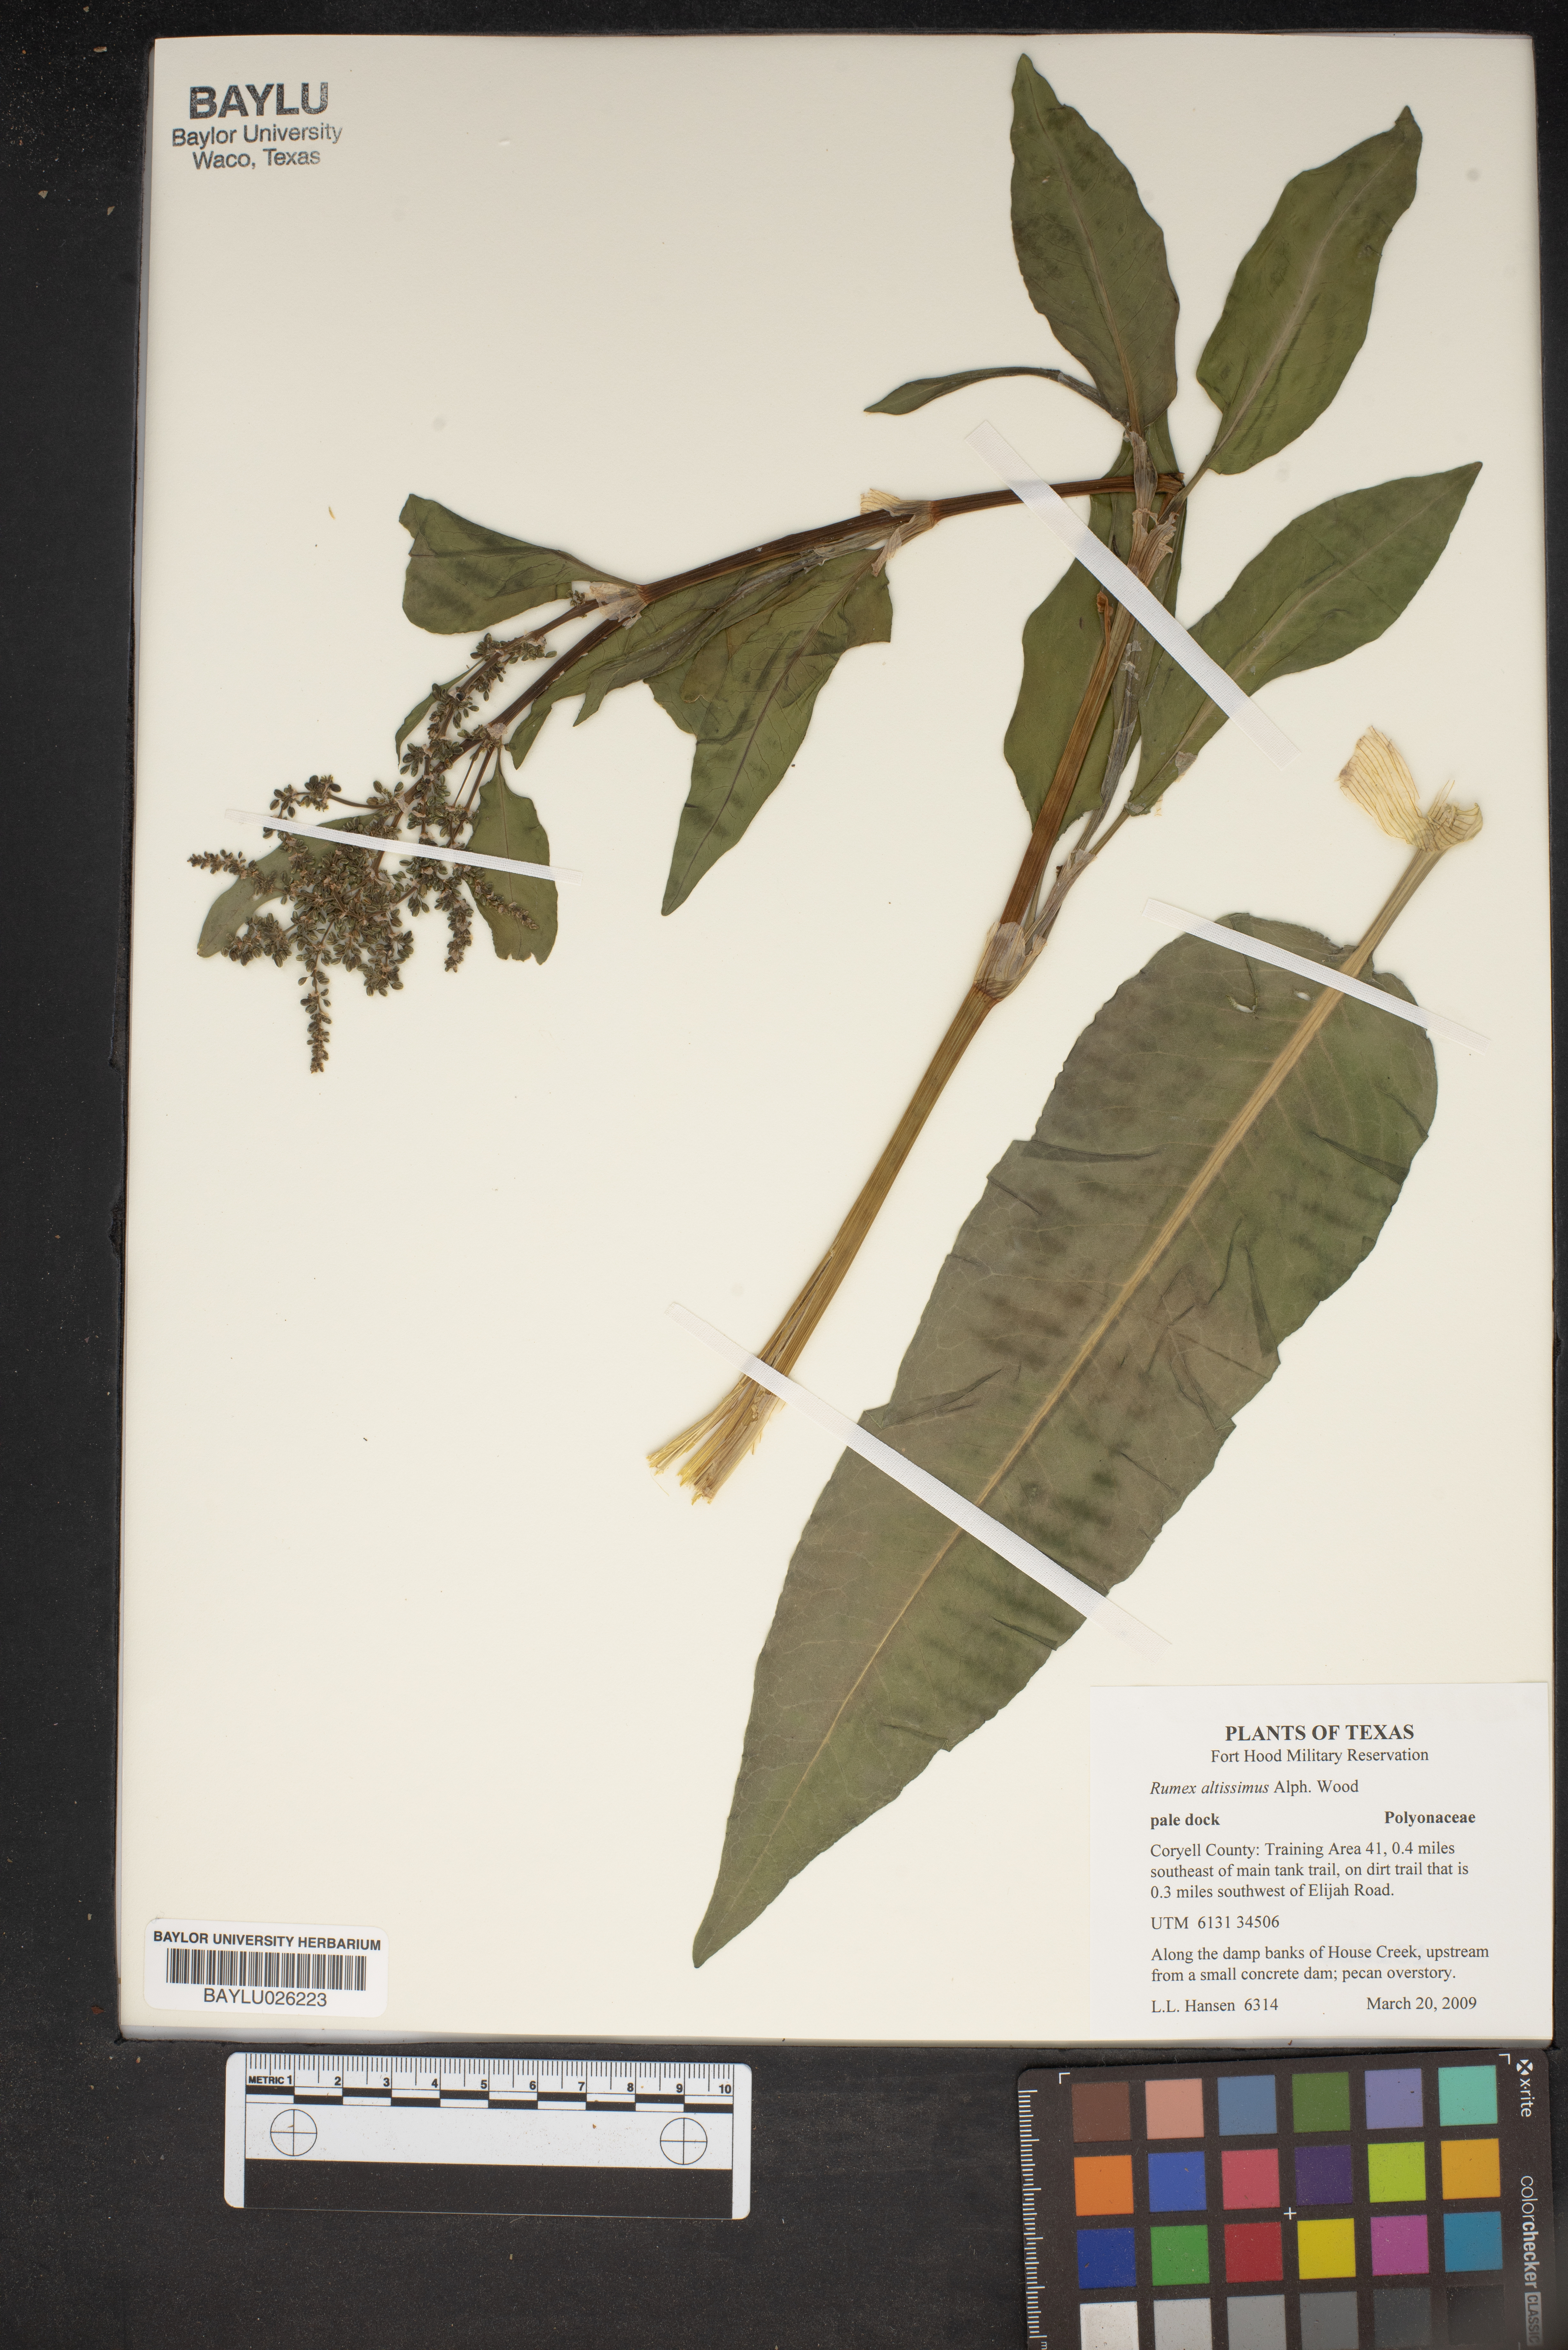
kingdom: Plantae
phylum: Tracheophyta
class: Magnoliopsida
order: Caryophyllales
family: Polygonaceae
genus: Rumex
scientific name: Rumex altissimus
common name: Smooth dock
